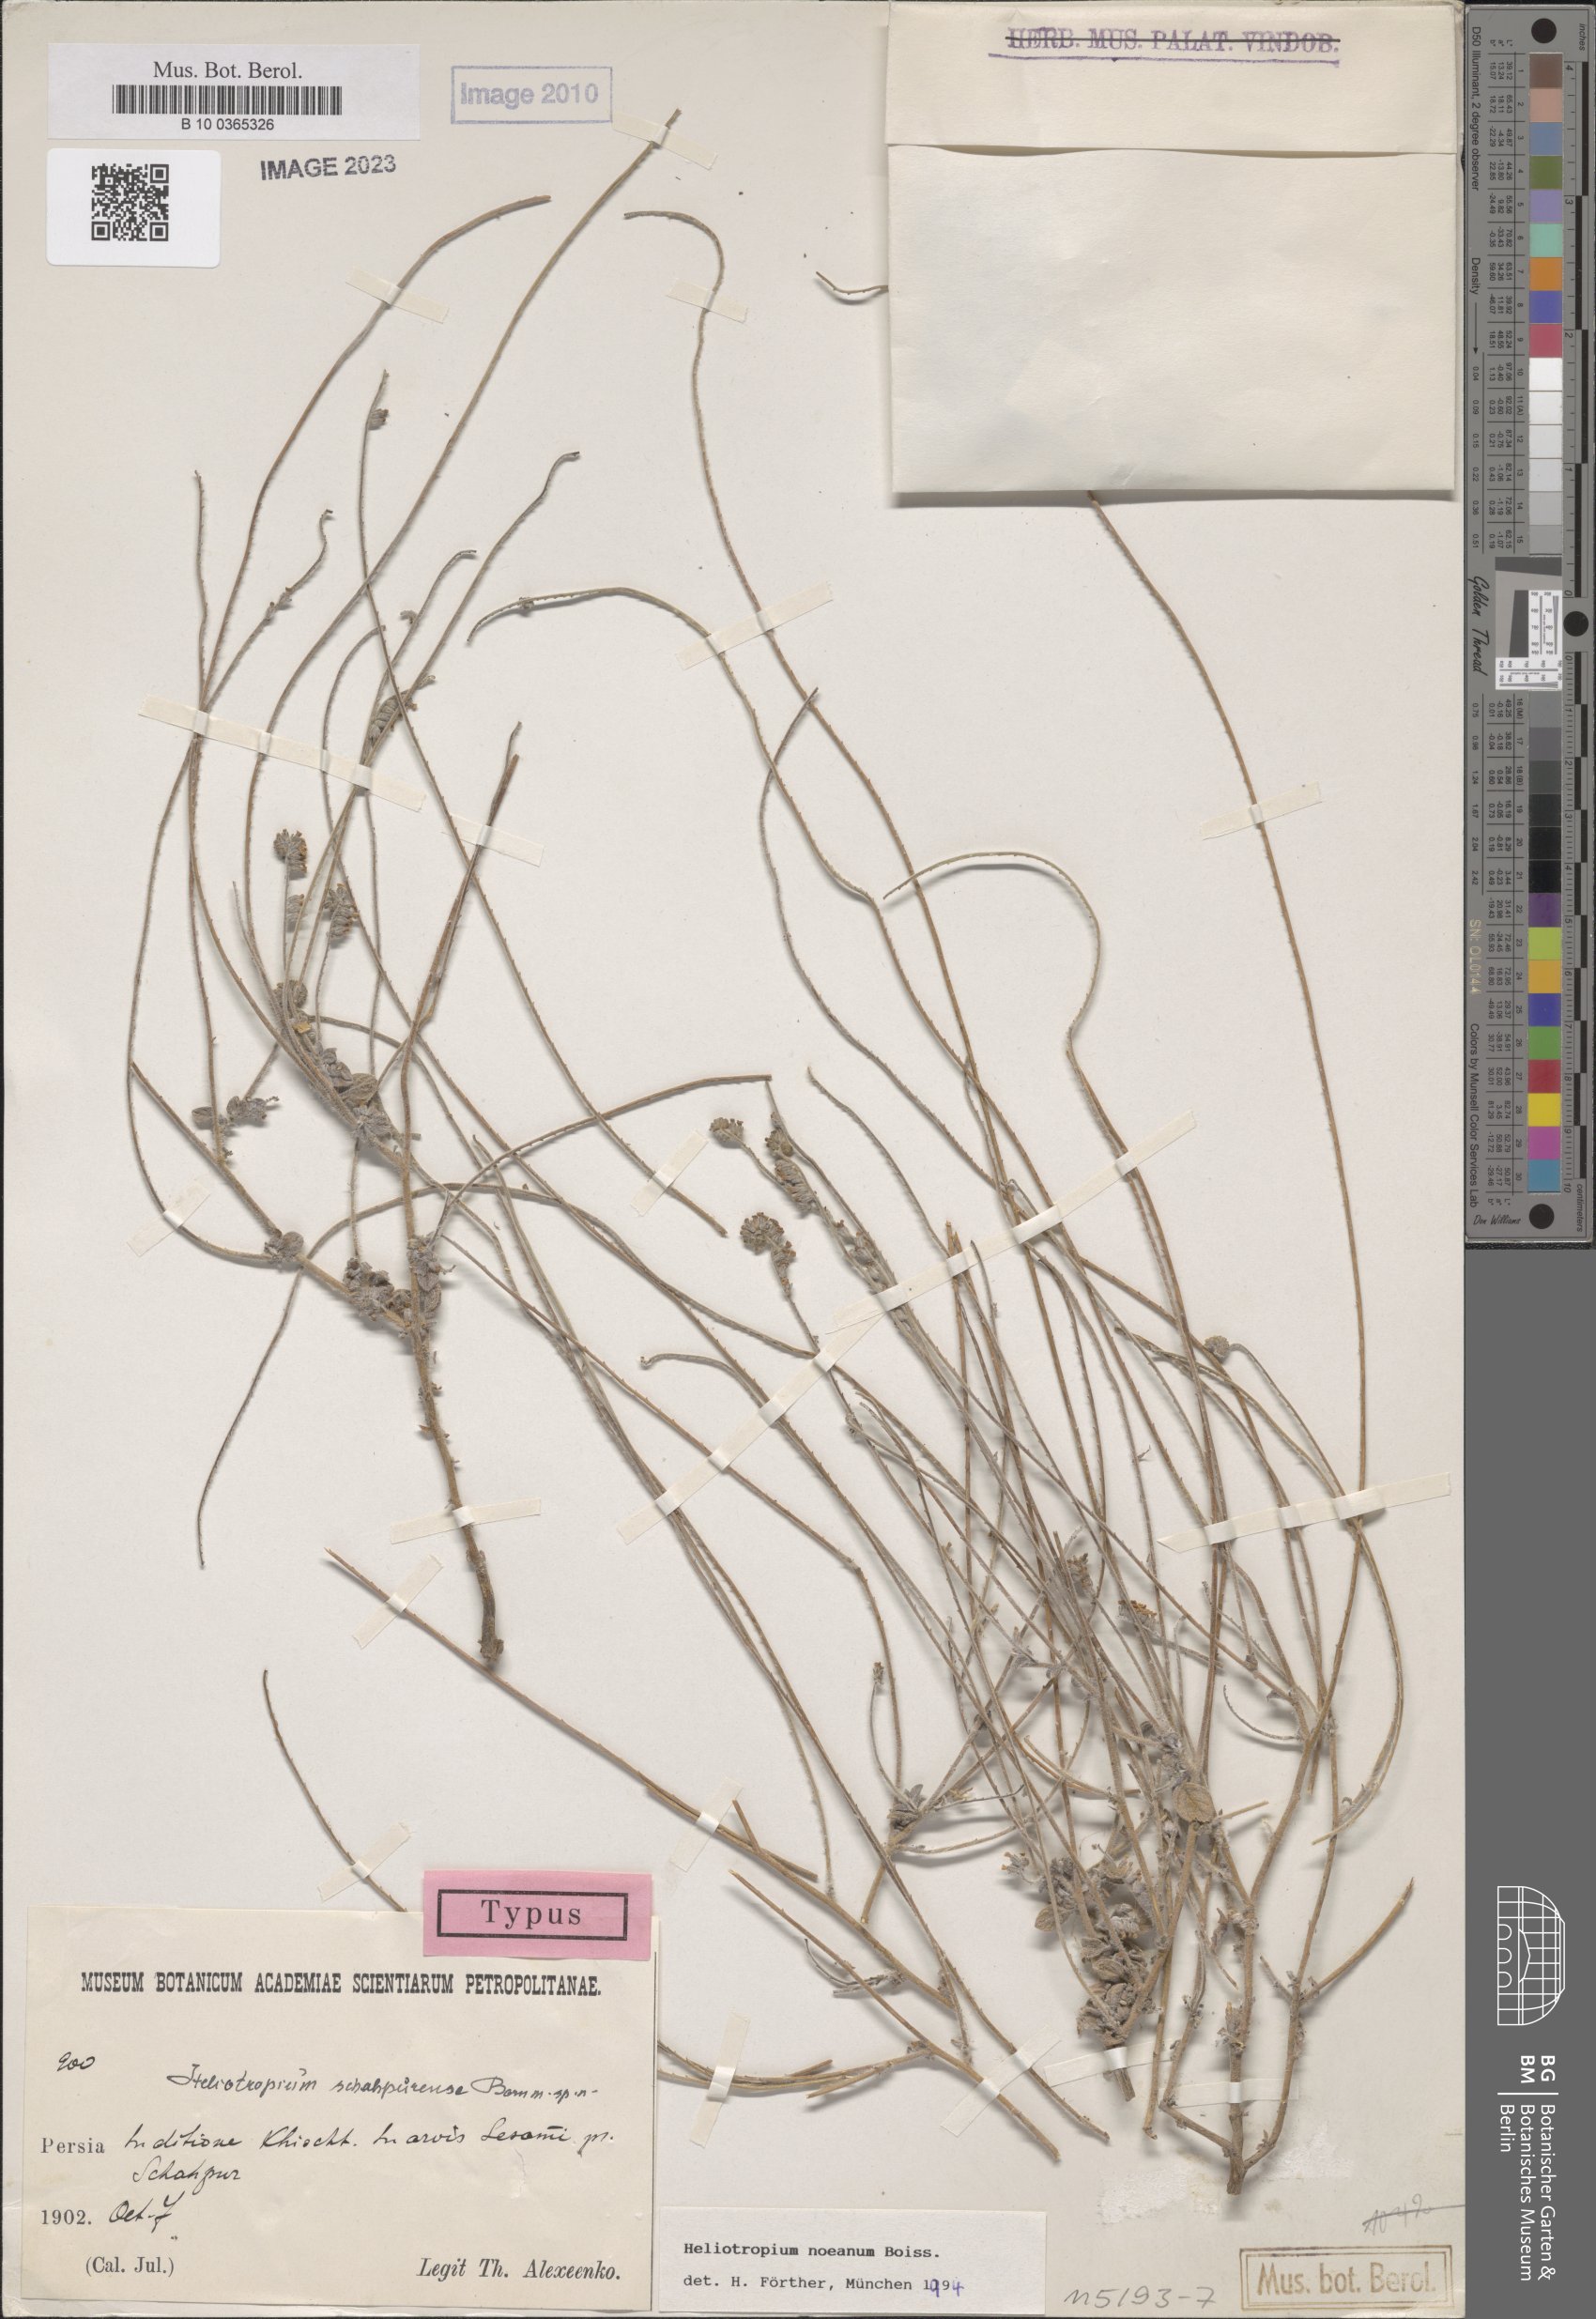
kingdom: Plantae
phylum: Tracheophyta
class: Magnoliopsida
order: Boraginales
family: Heliotropiaceae
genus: Heliotropium
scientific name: Heliotropium noeanum
